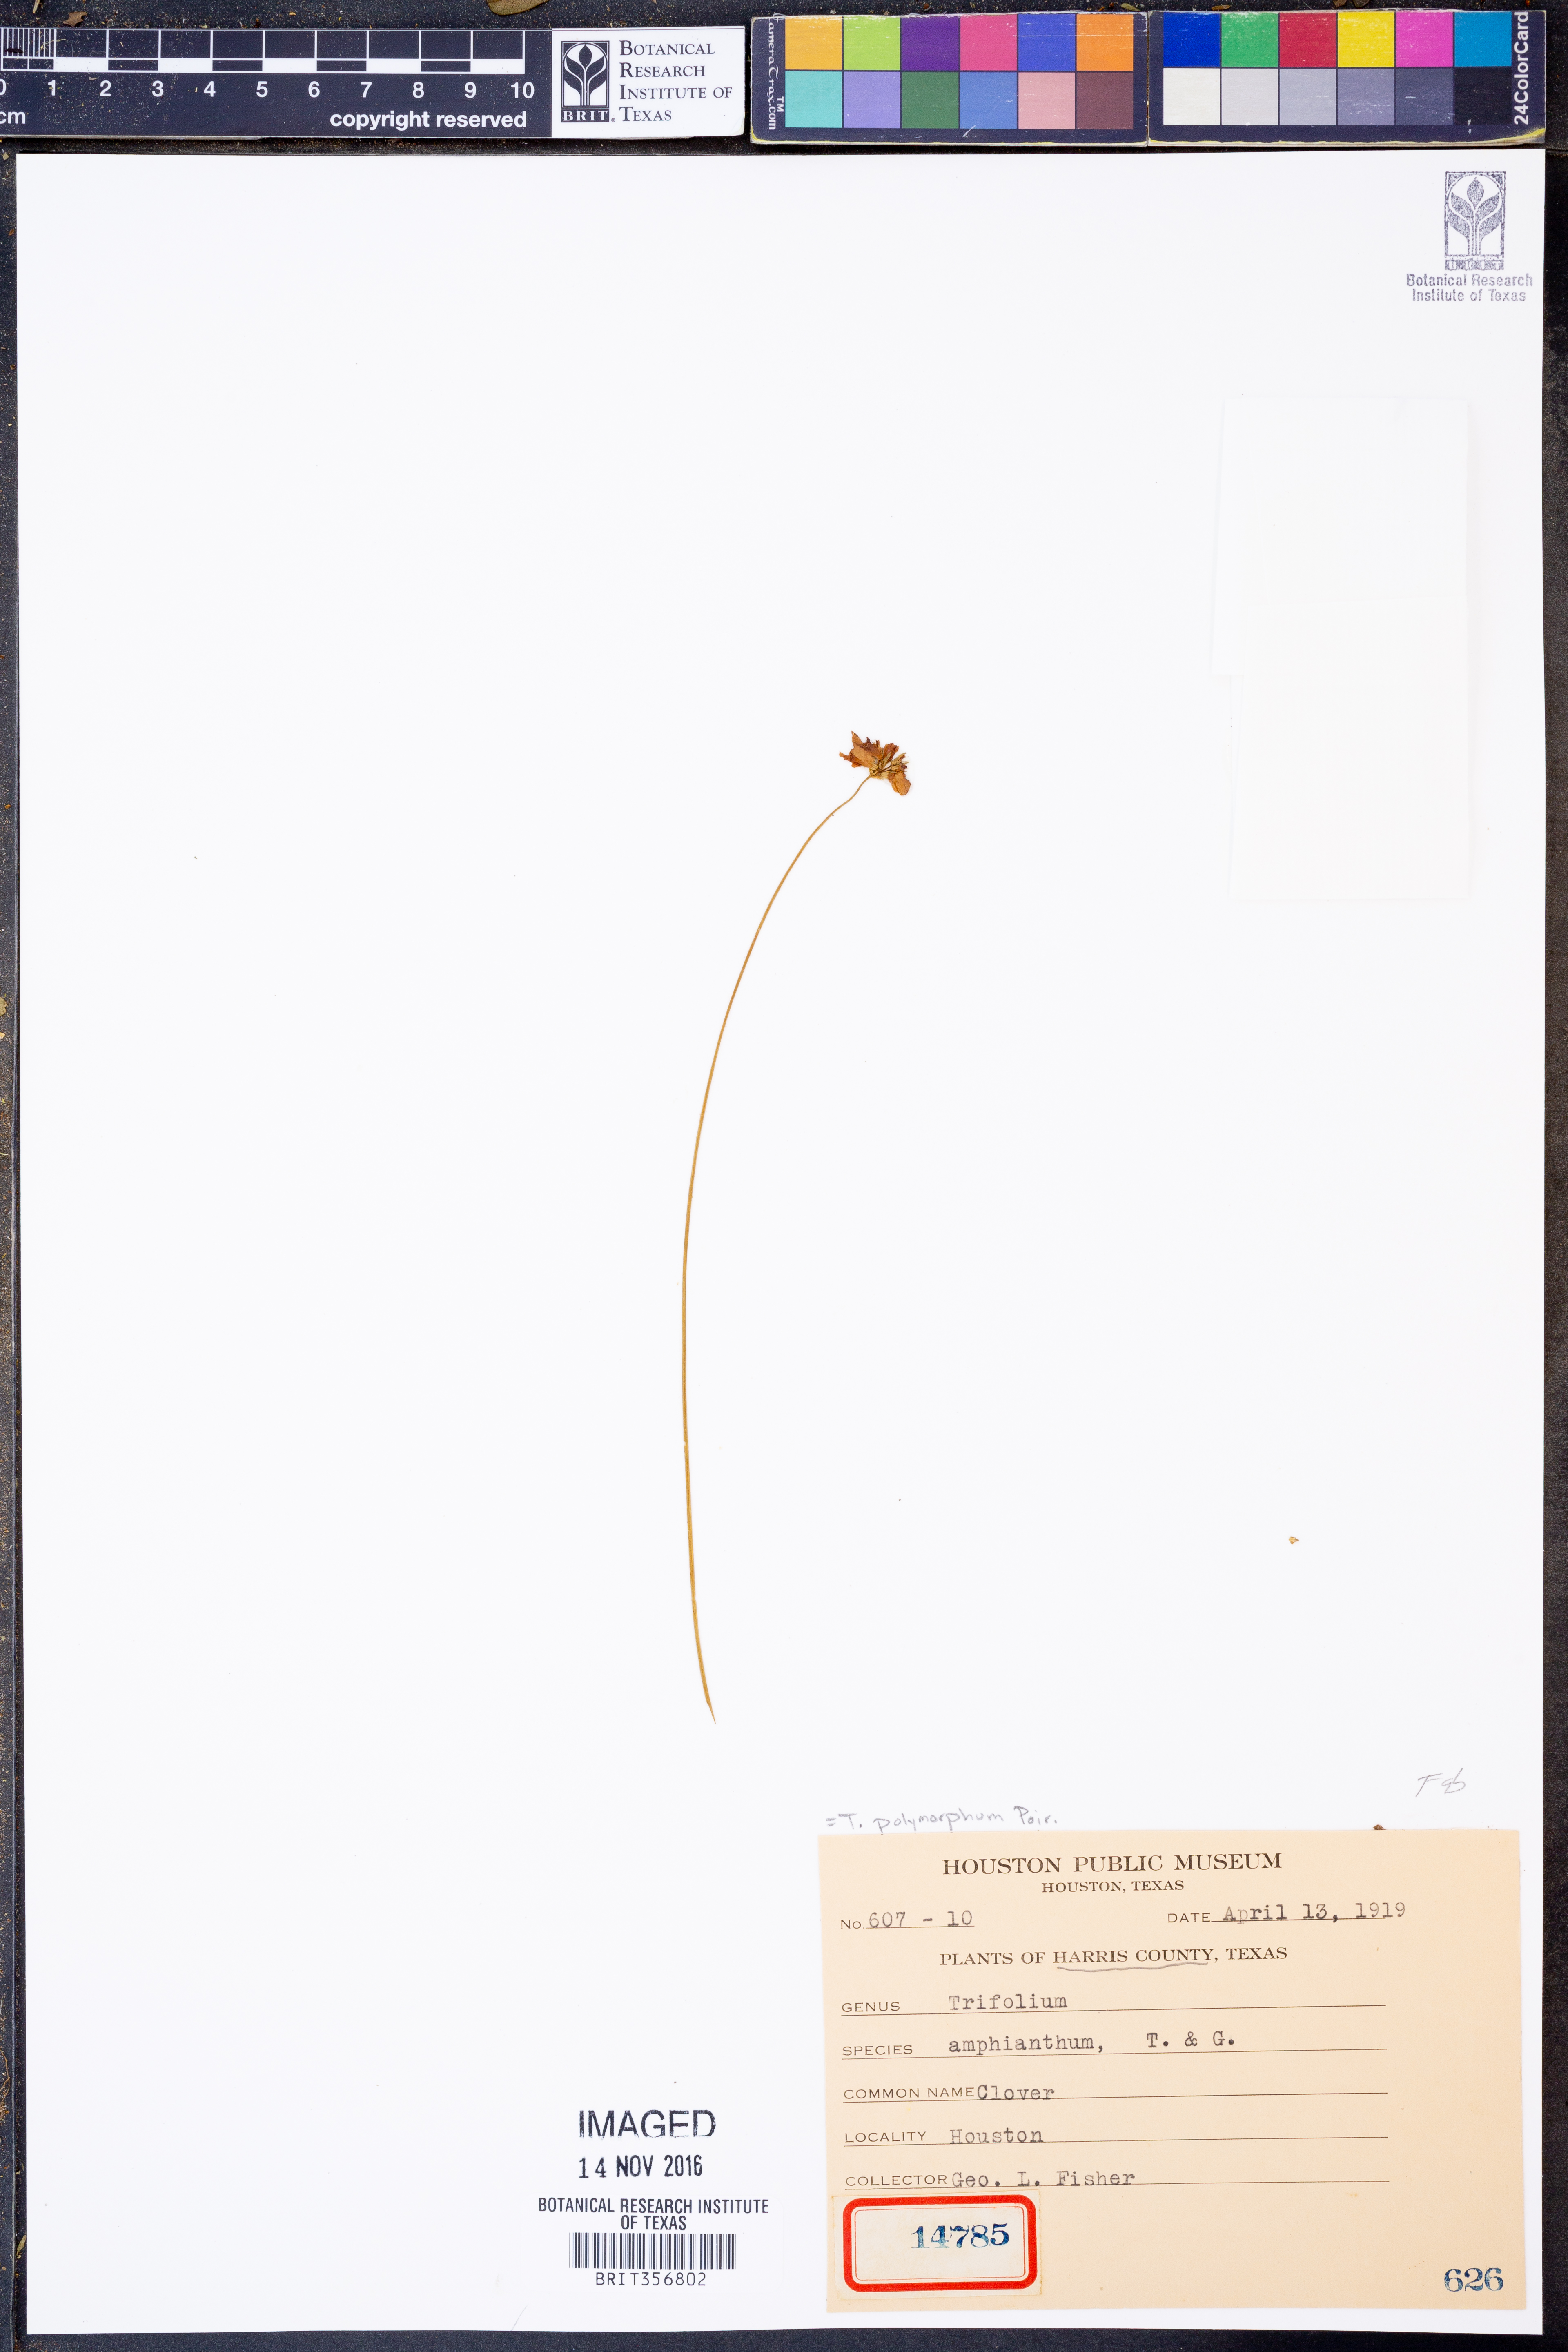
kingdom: Plantae
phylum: Tracheophyta
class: Magnoliopsida
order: Fabales
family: Fabaceae
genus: Trifolium
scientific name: Trifolium polymorphum
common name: Peanut clover
